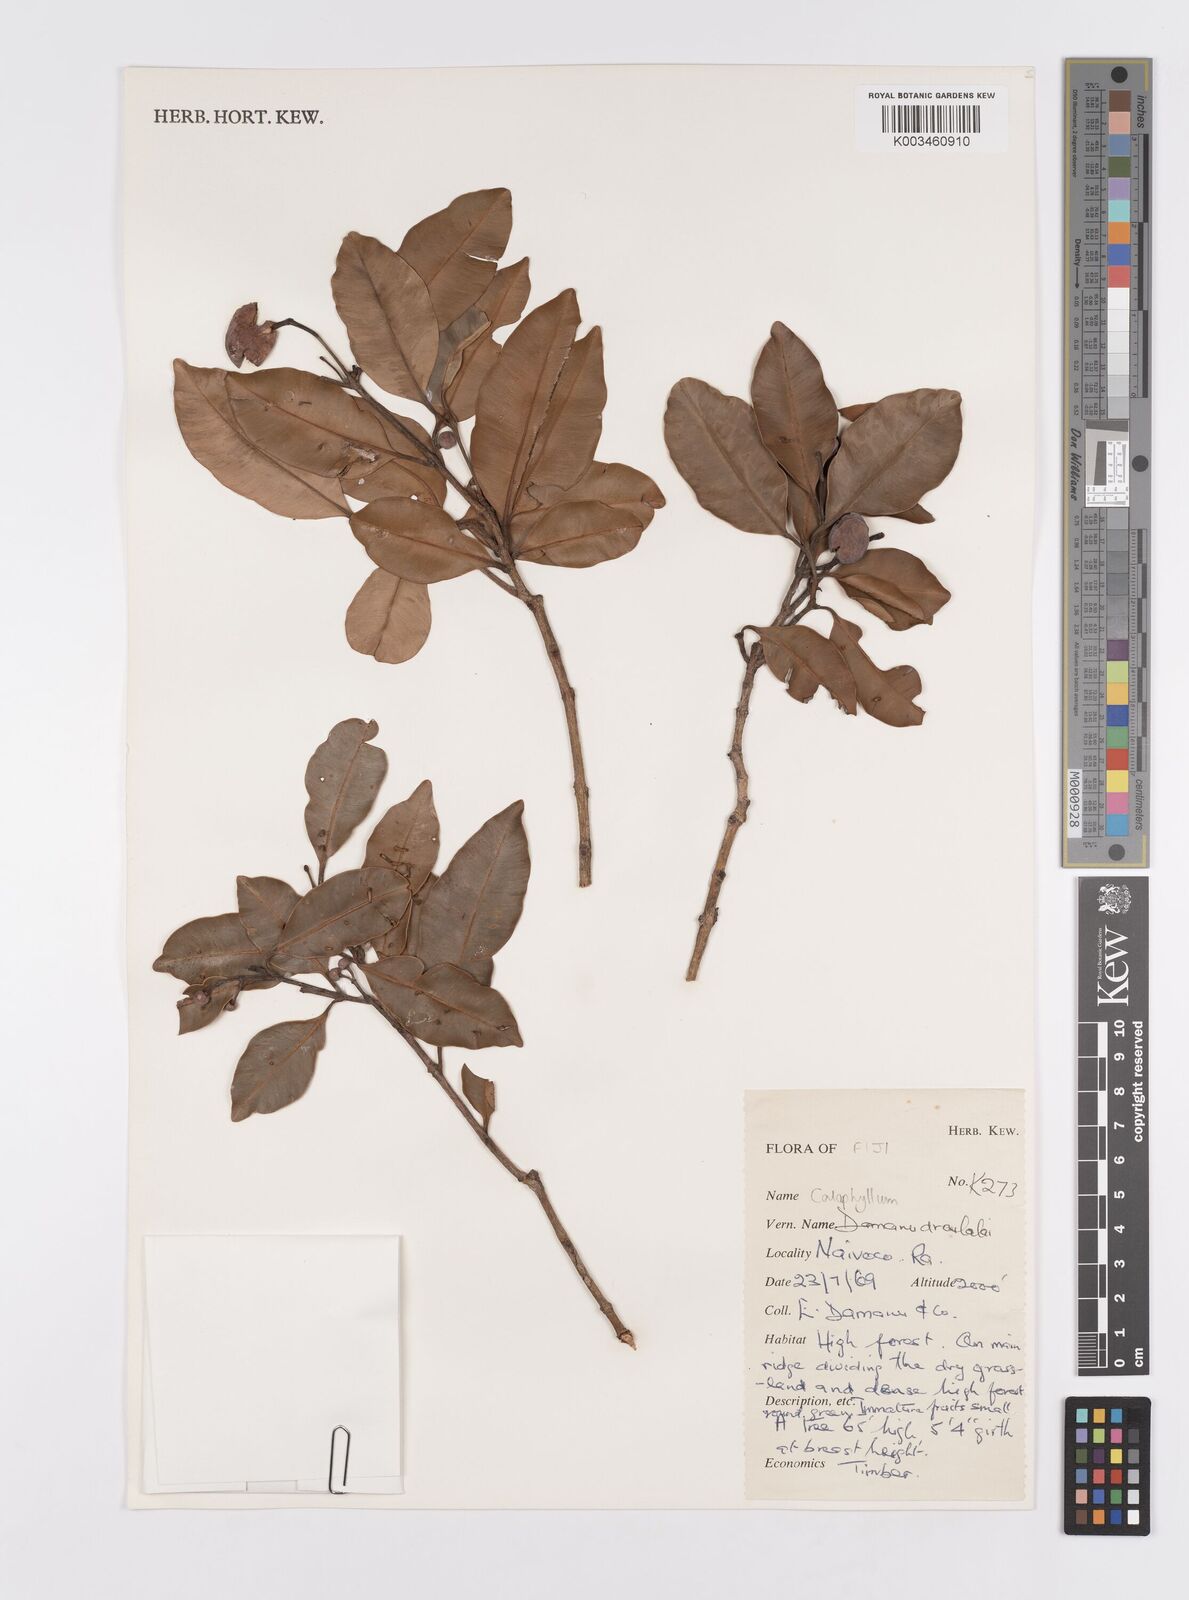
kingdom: Plantae
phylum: Tracheophyta
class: Magnoliopsida
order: Malpighiales
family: Calophyllaceae
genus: Calophyllum
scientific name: Calophyllum
